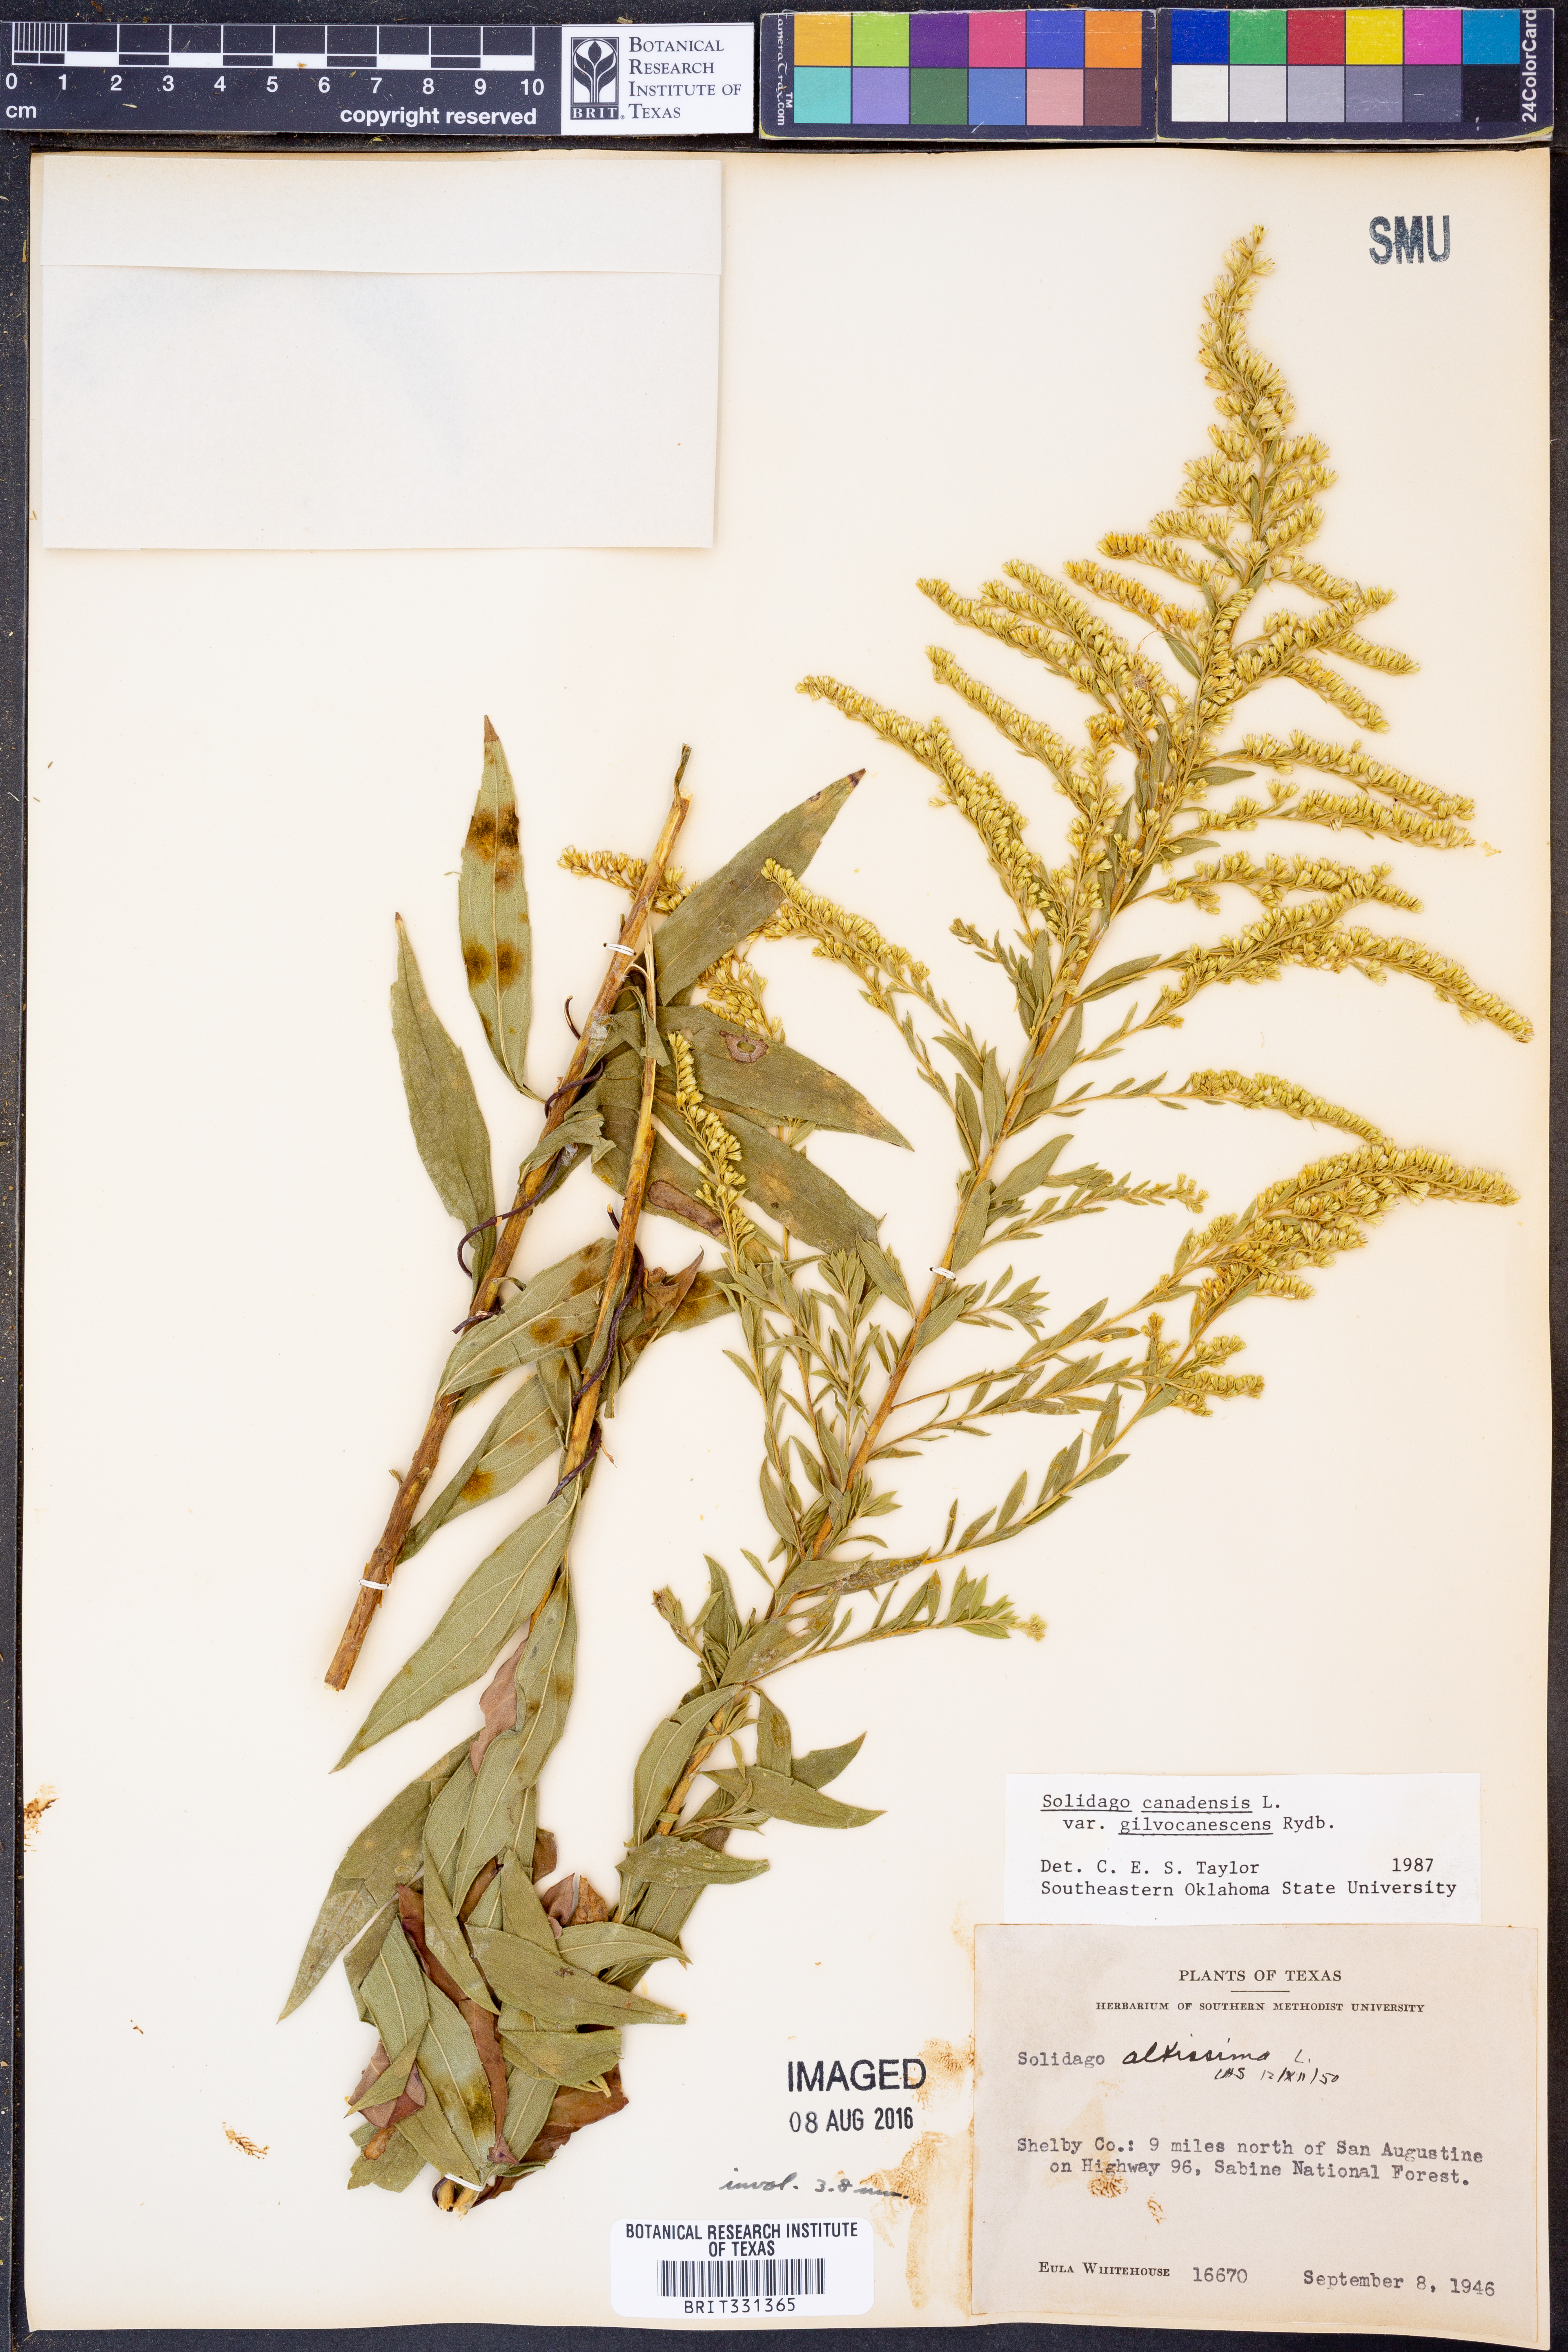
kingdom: Plantae
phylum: Tracheophyta
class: Magnoliopsida
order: Asterales
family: Asteraceae
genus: Solidago
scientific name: Solidago altissima
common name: Late goldenrod
